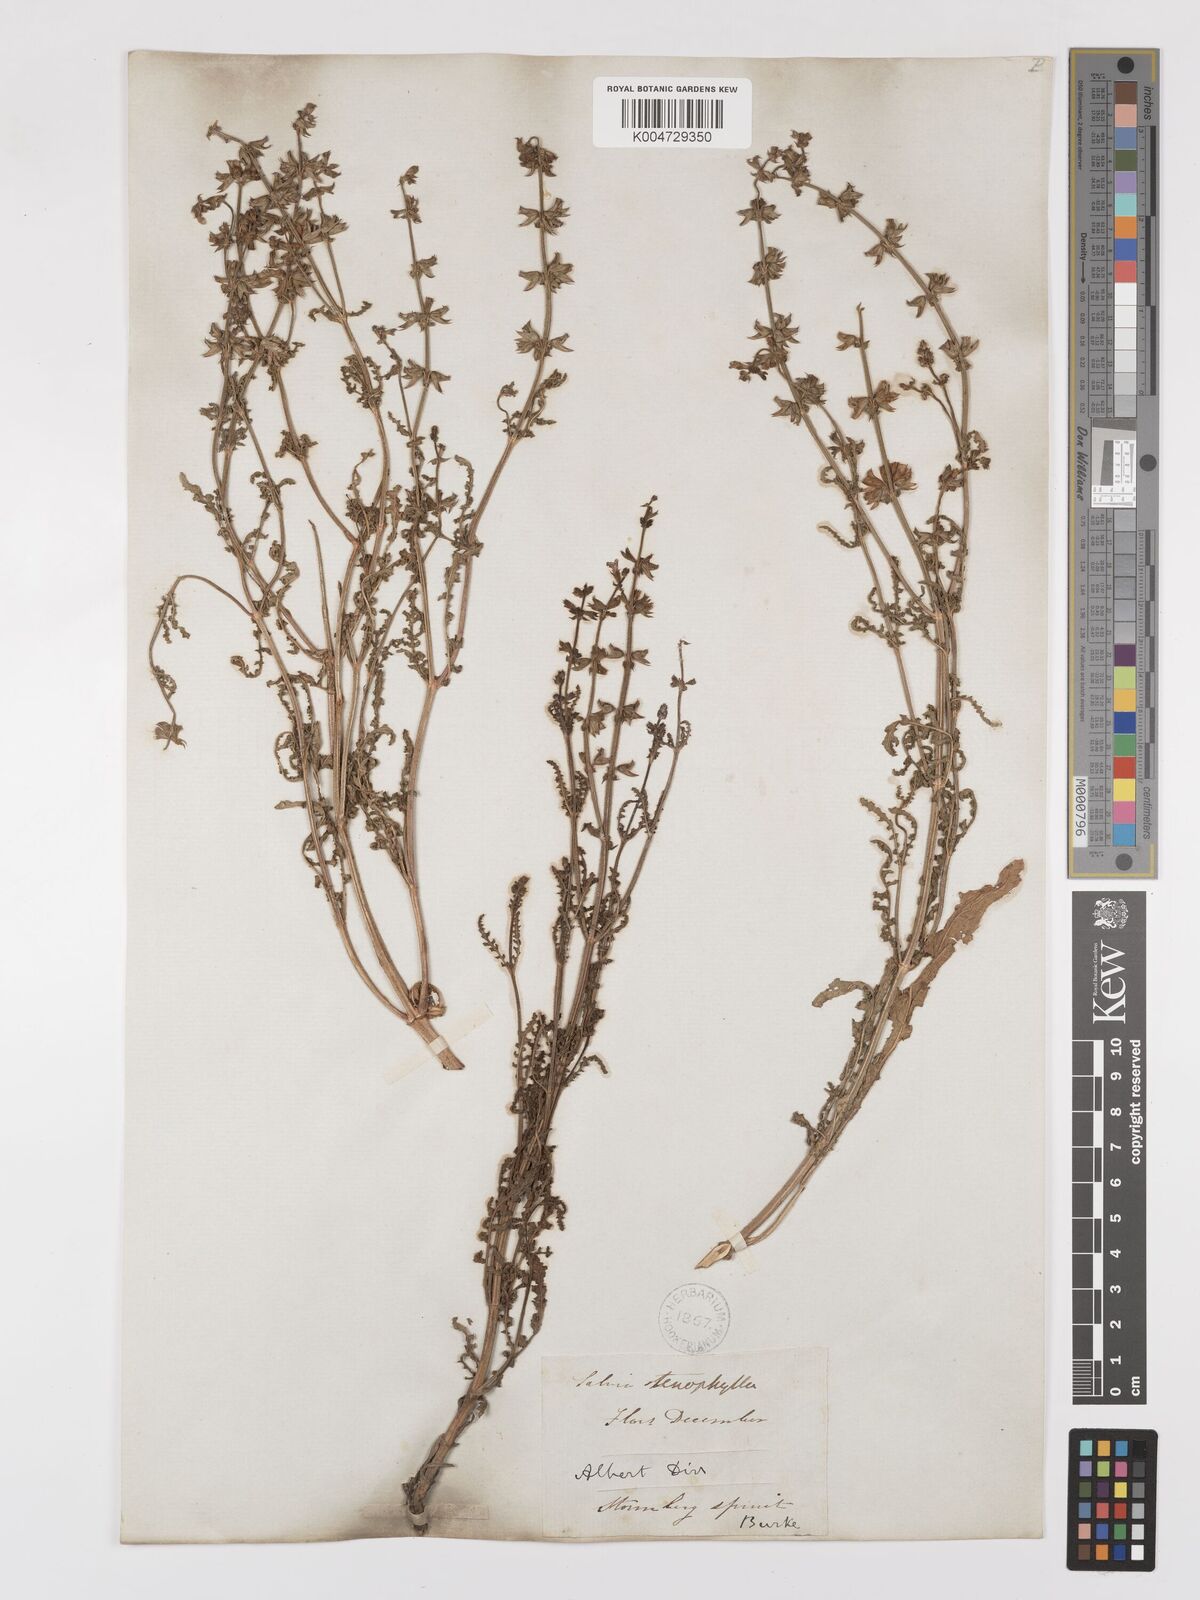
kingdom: Plantae
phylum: Tracheophyta
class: Magnoliopsida
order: Lamiales
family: Lamiaceae
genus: Salvia
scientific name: Salvia stenophylla
